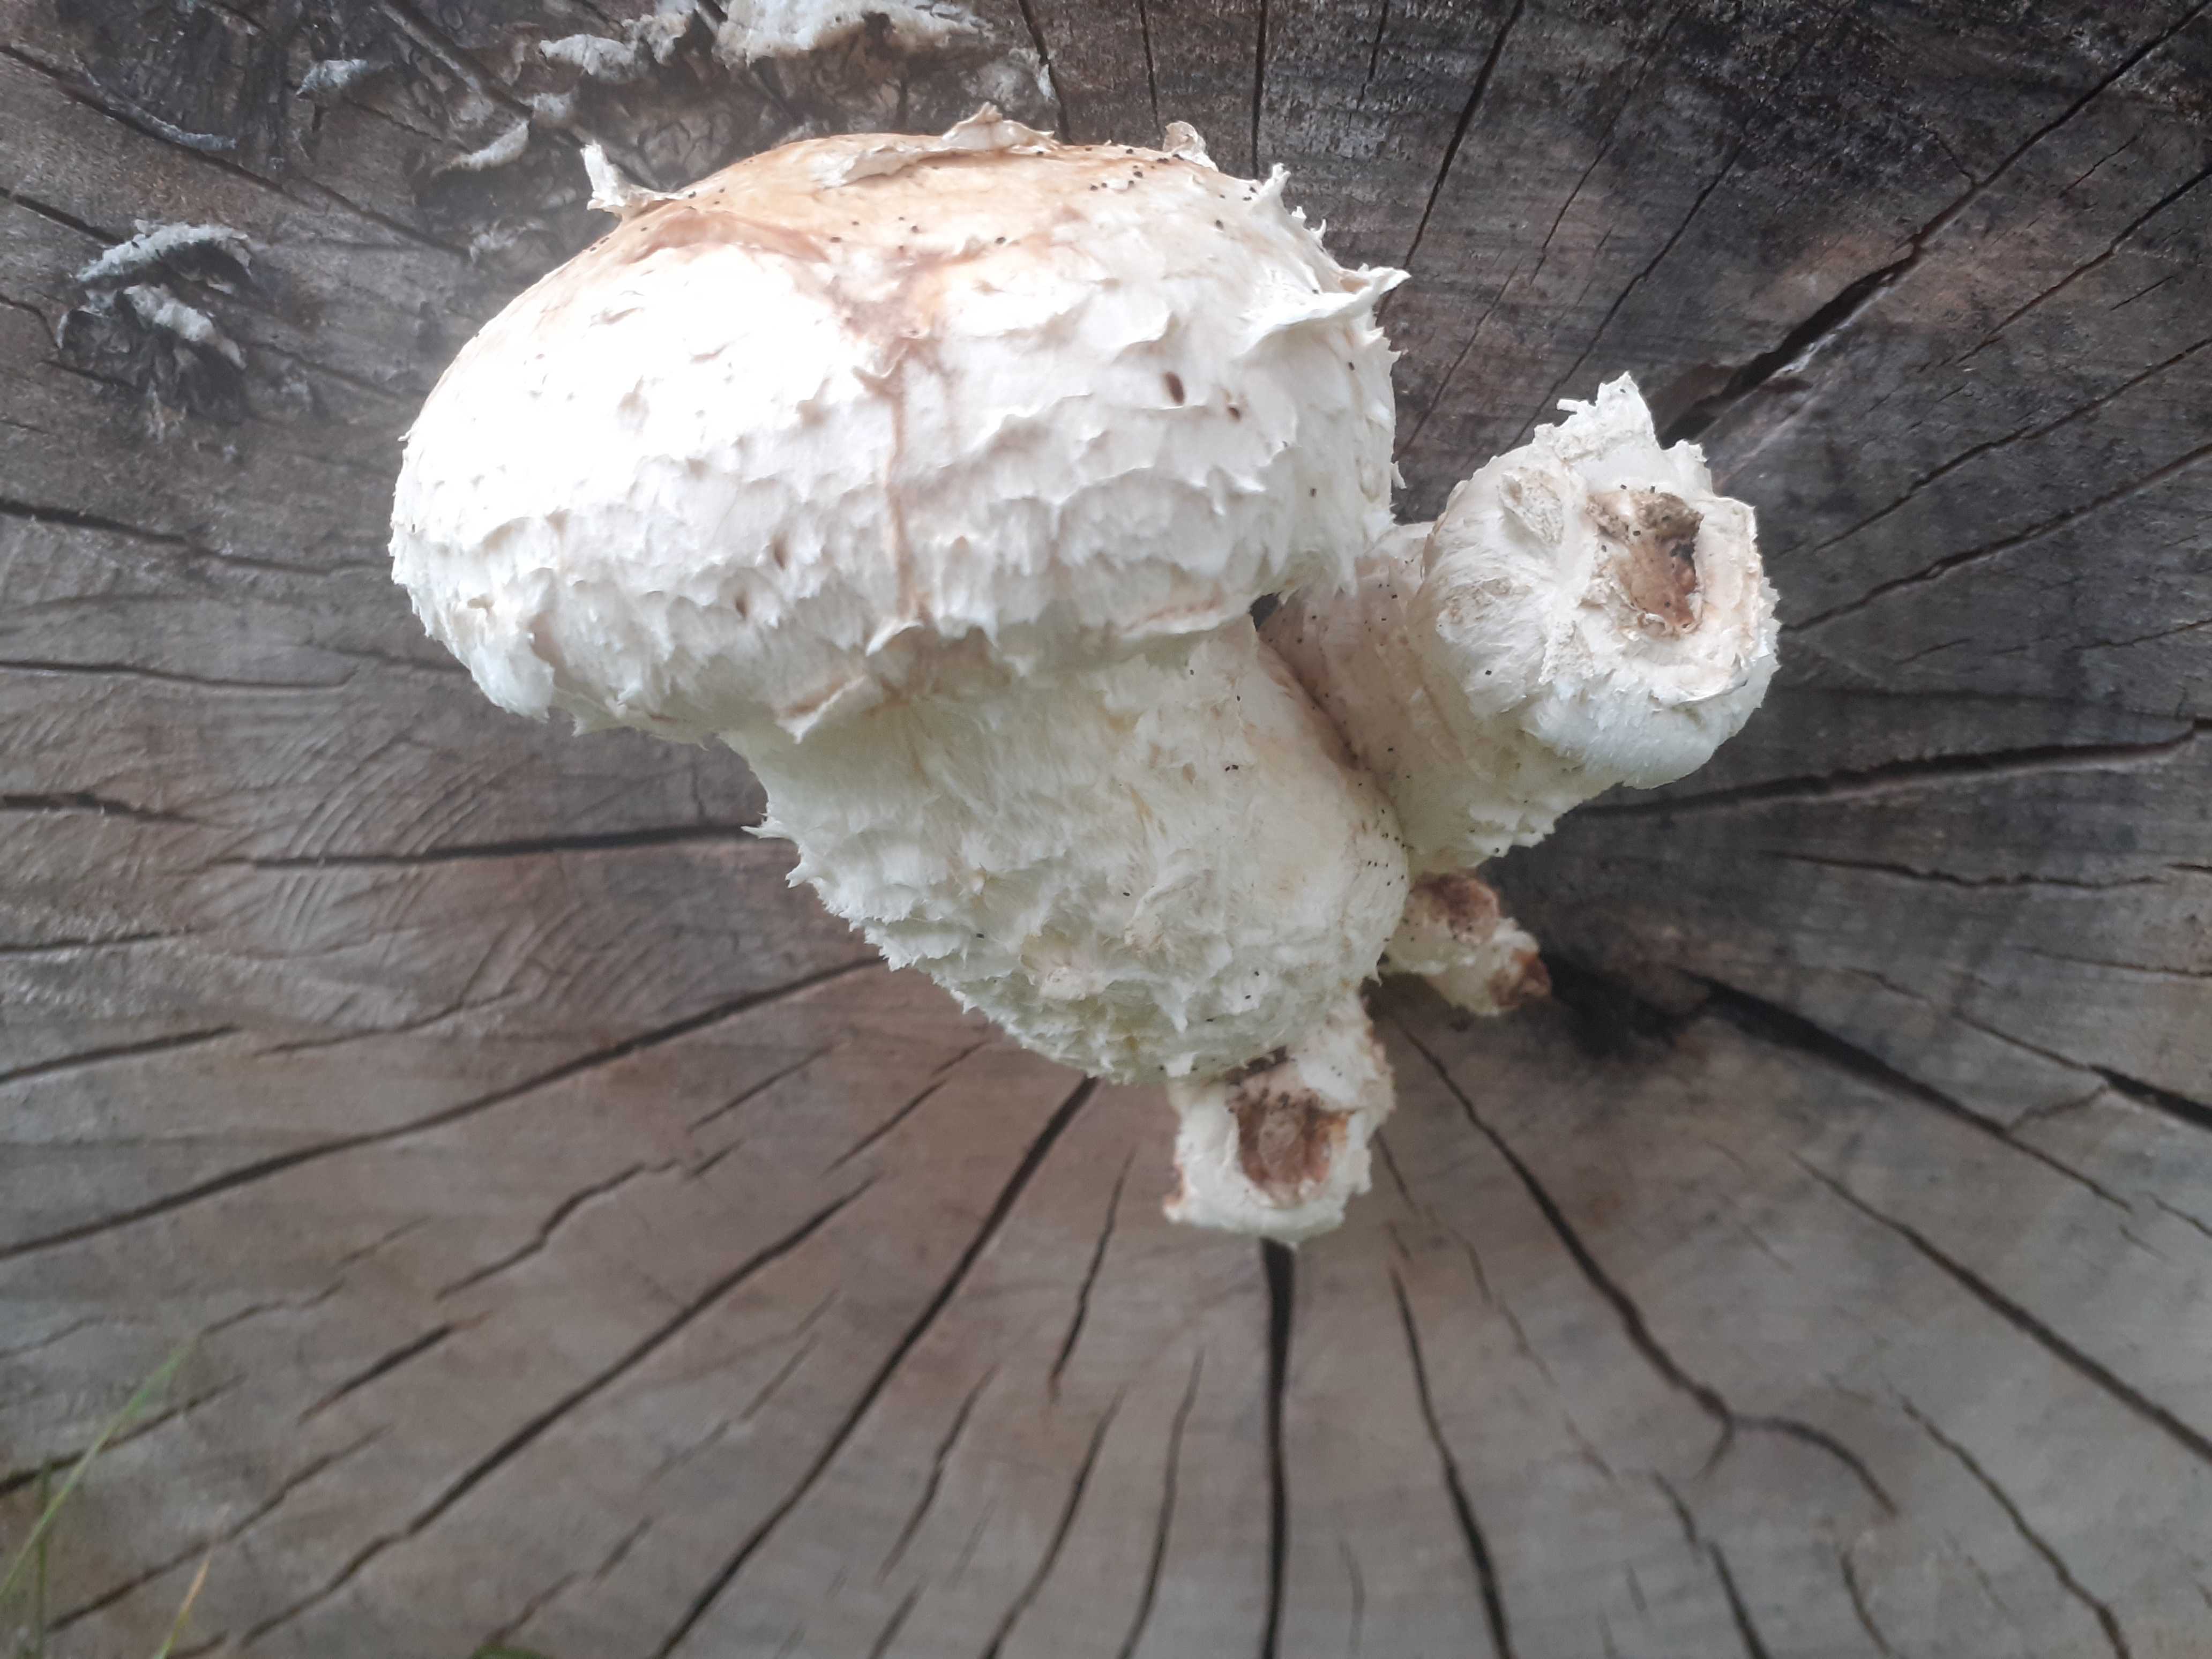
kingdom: Fungi
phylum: Basidiomycota
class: Agaricomycetes
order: Agaricales
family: Strophariaceae
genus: Pholiota
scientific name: Pholiota populnea
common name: poppel-kæmpeskælhat
